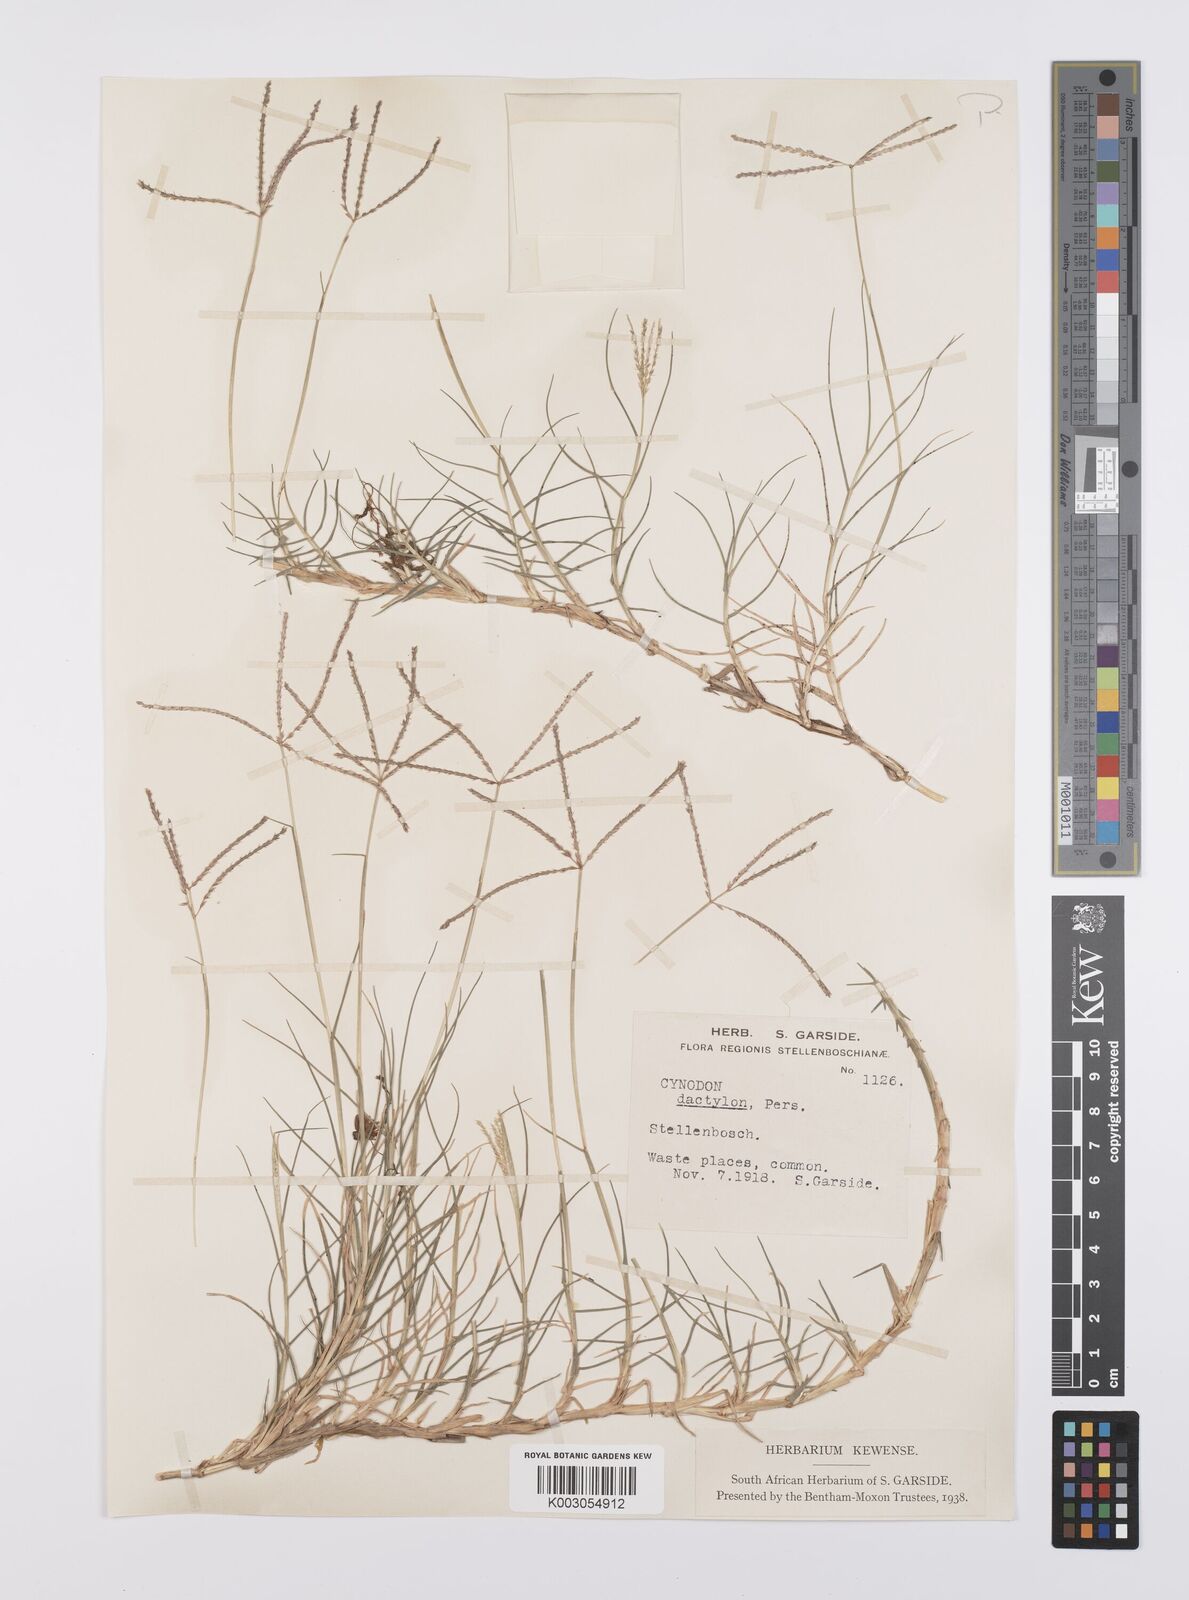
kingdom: Plantae
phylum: Tracheophyta
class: Liliopsida
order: Poales
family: Poaceae
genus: Cynodon
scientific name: Cynodon dactylon
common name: Bermuda grass
